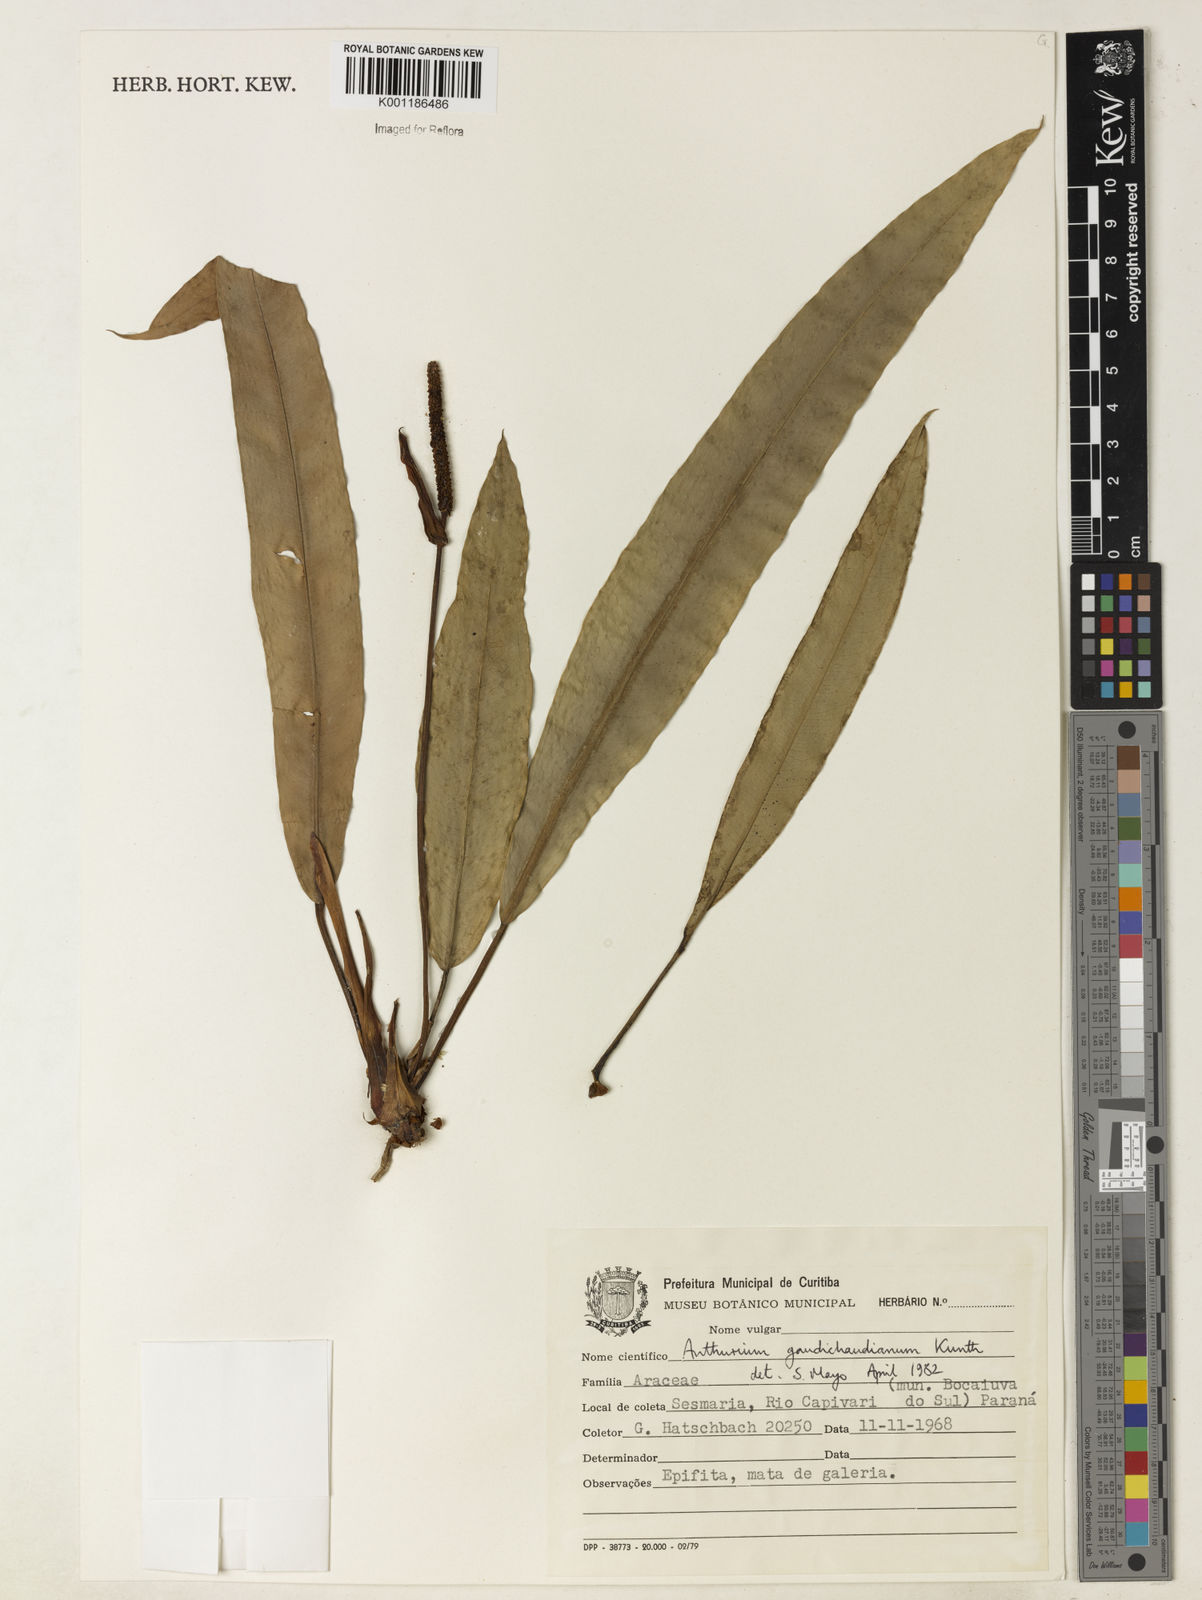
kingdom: Plantae
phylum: Tracheophyta
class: Liliopsida
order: Alismatales
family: Araceae
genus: Anthurium
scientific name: Anthurium gaudichaudianum
